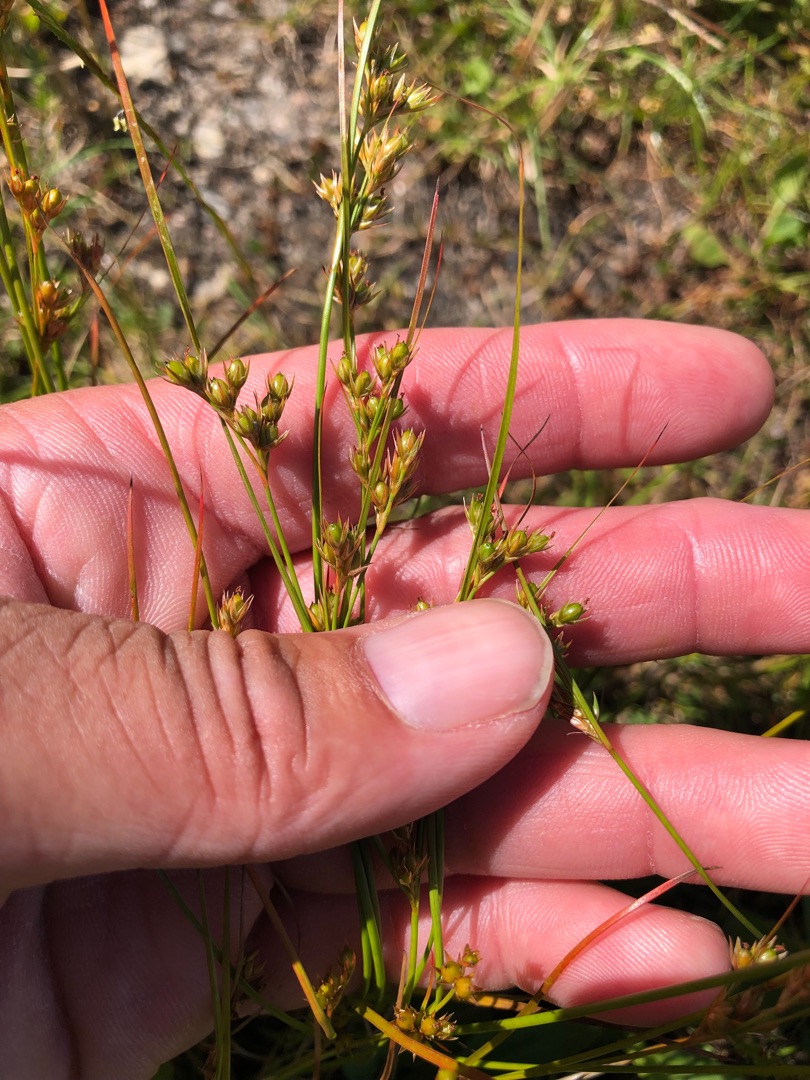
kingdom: Plantae
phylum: Tracheophyta
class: Liliopsida
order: Poales
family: Juncaceae
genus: Juncus
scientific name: Juncus tenuis
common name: Tue-siv
